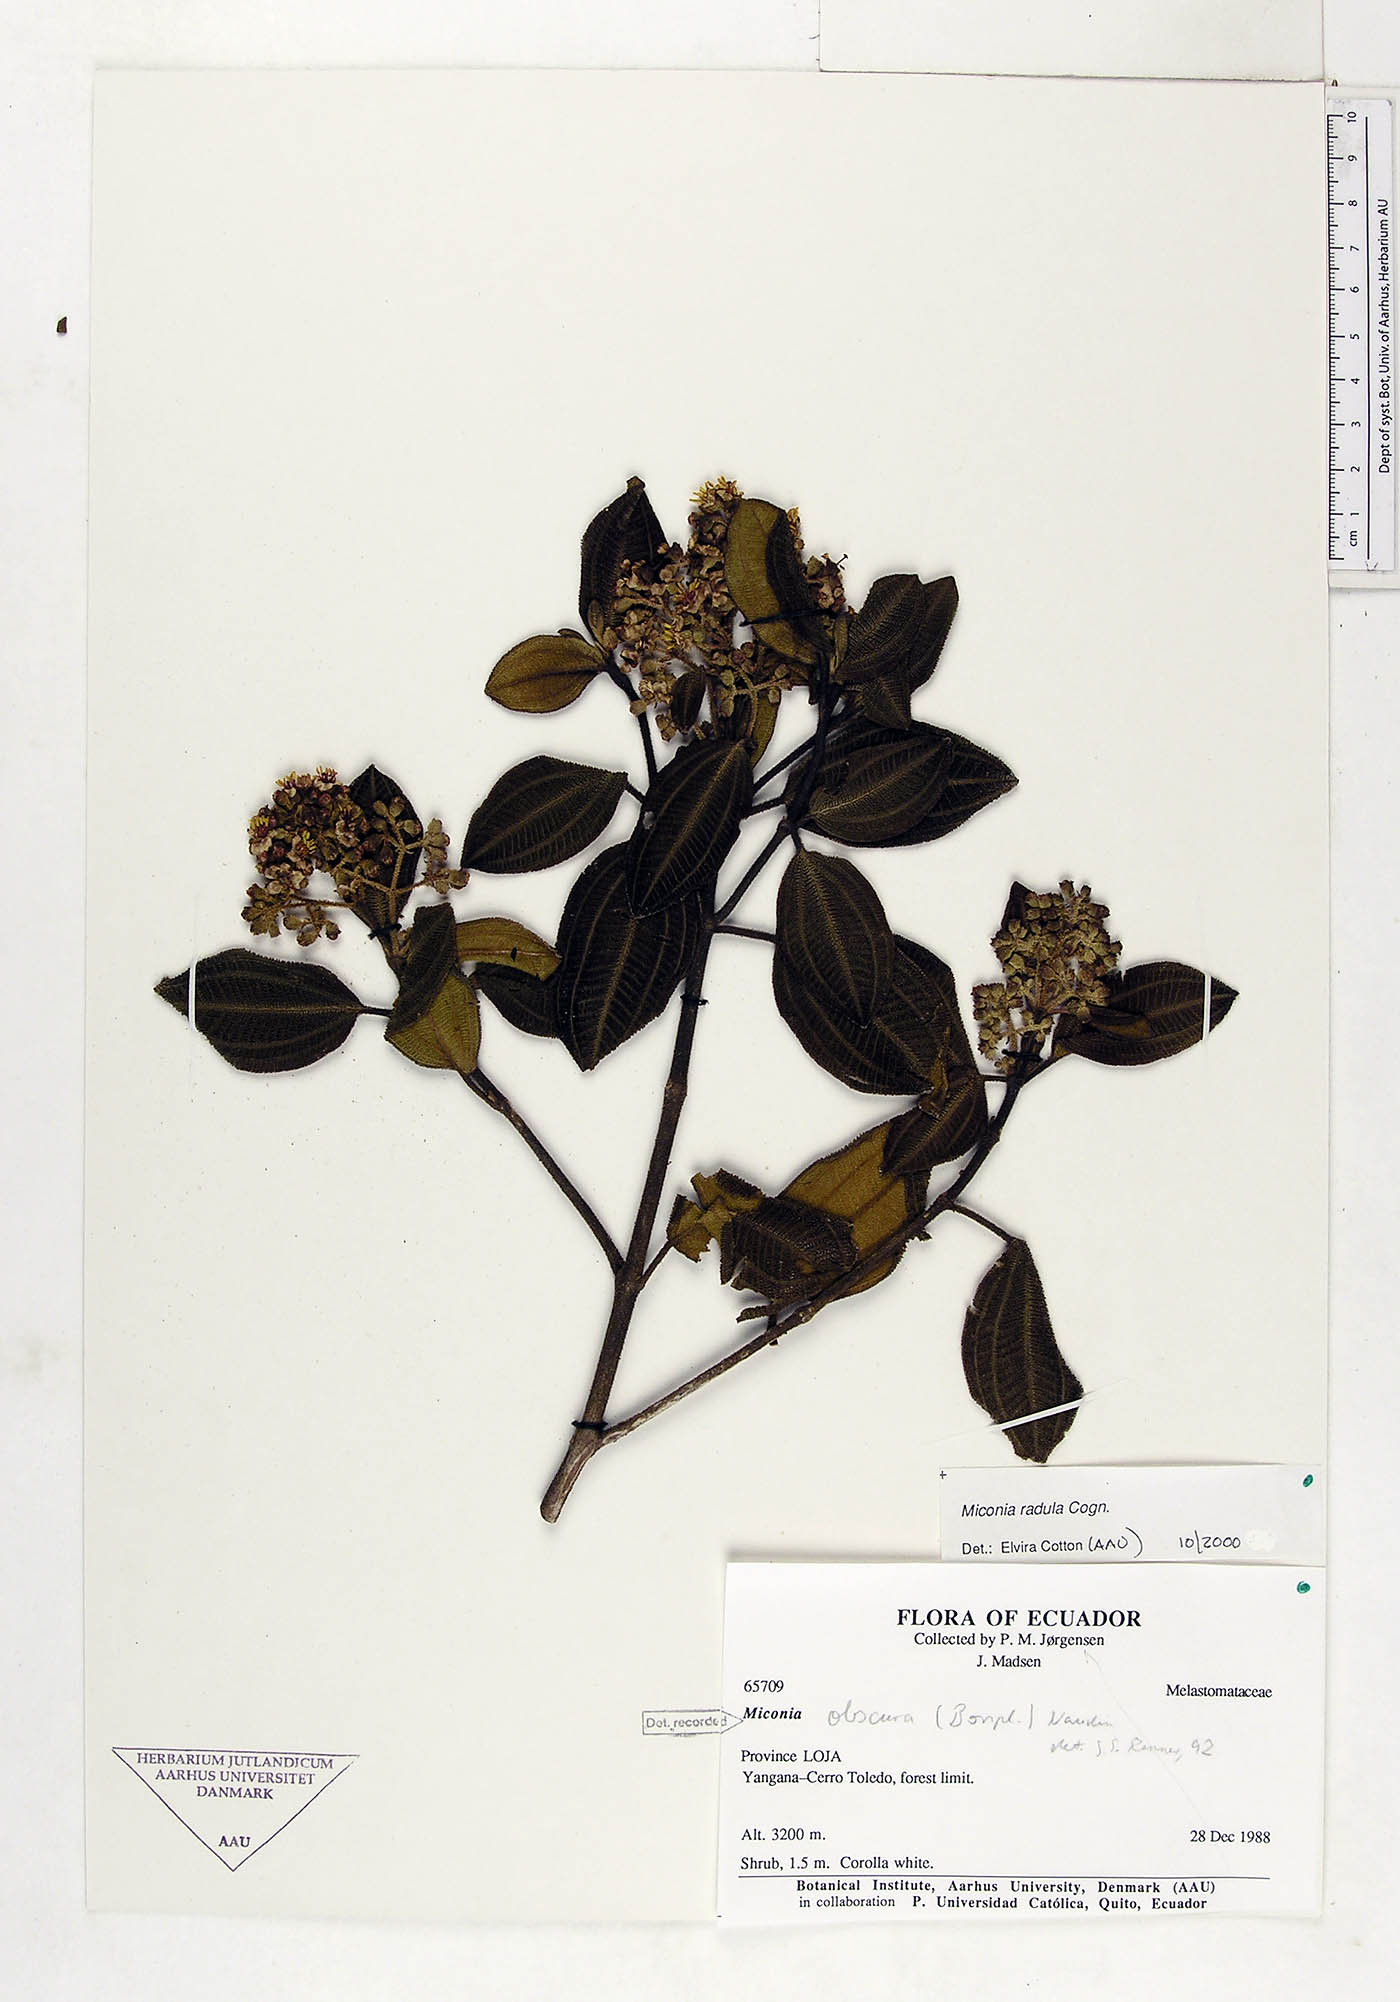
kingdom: Plantae
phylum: Tracheophyta
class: Magnoliopsida
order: Myrtales
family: Melastomataceae
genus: Miconia
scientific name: Miconia obscura
